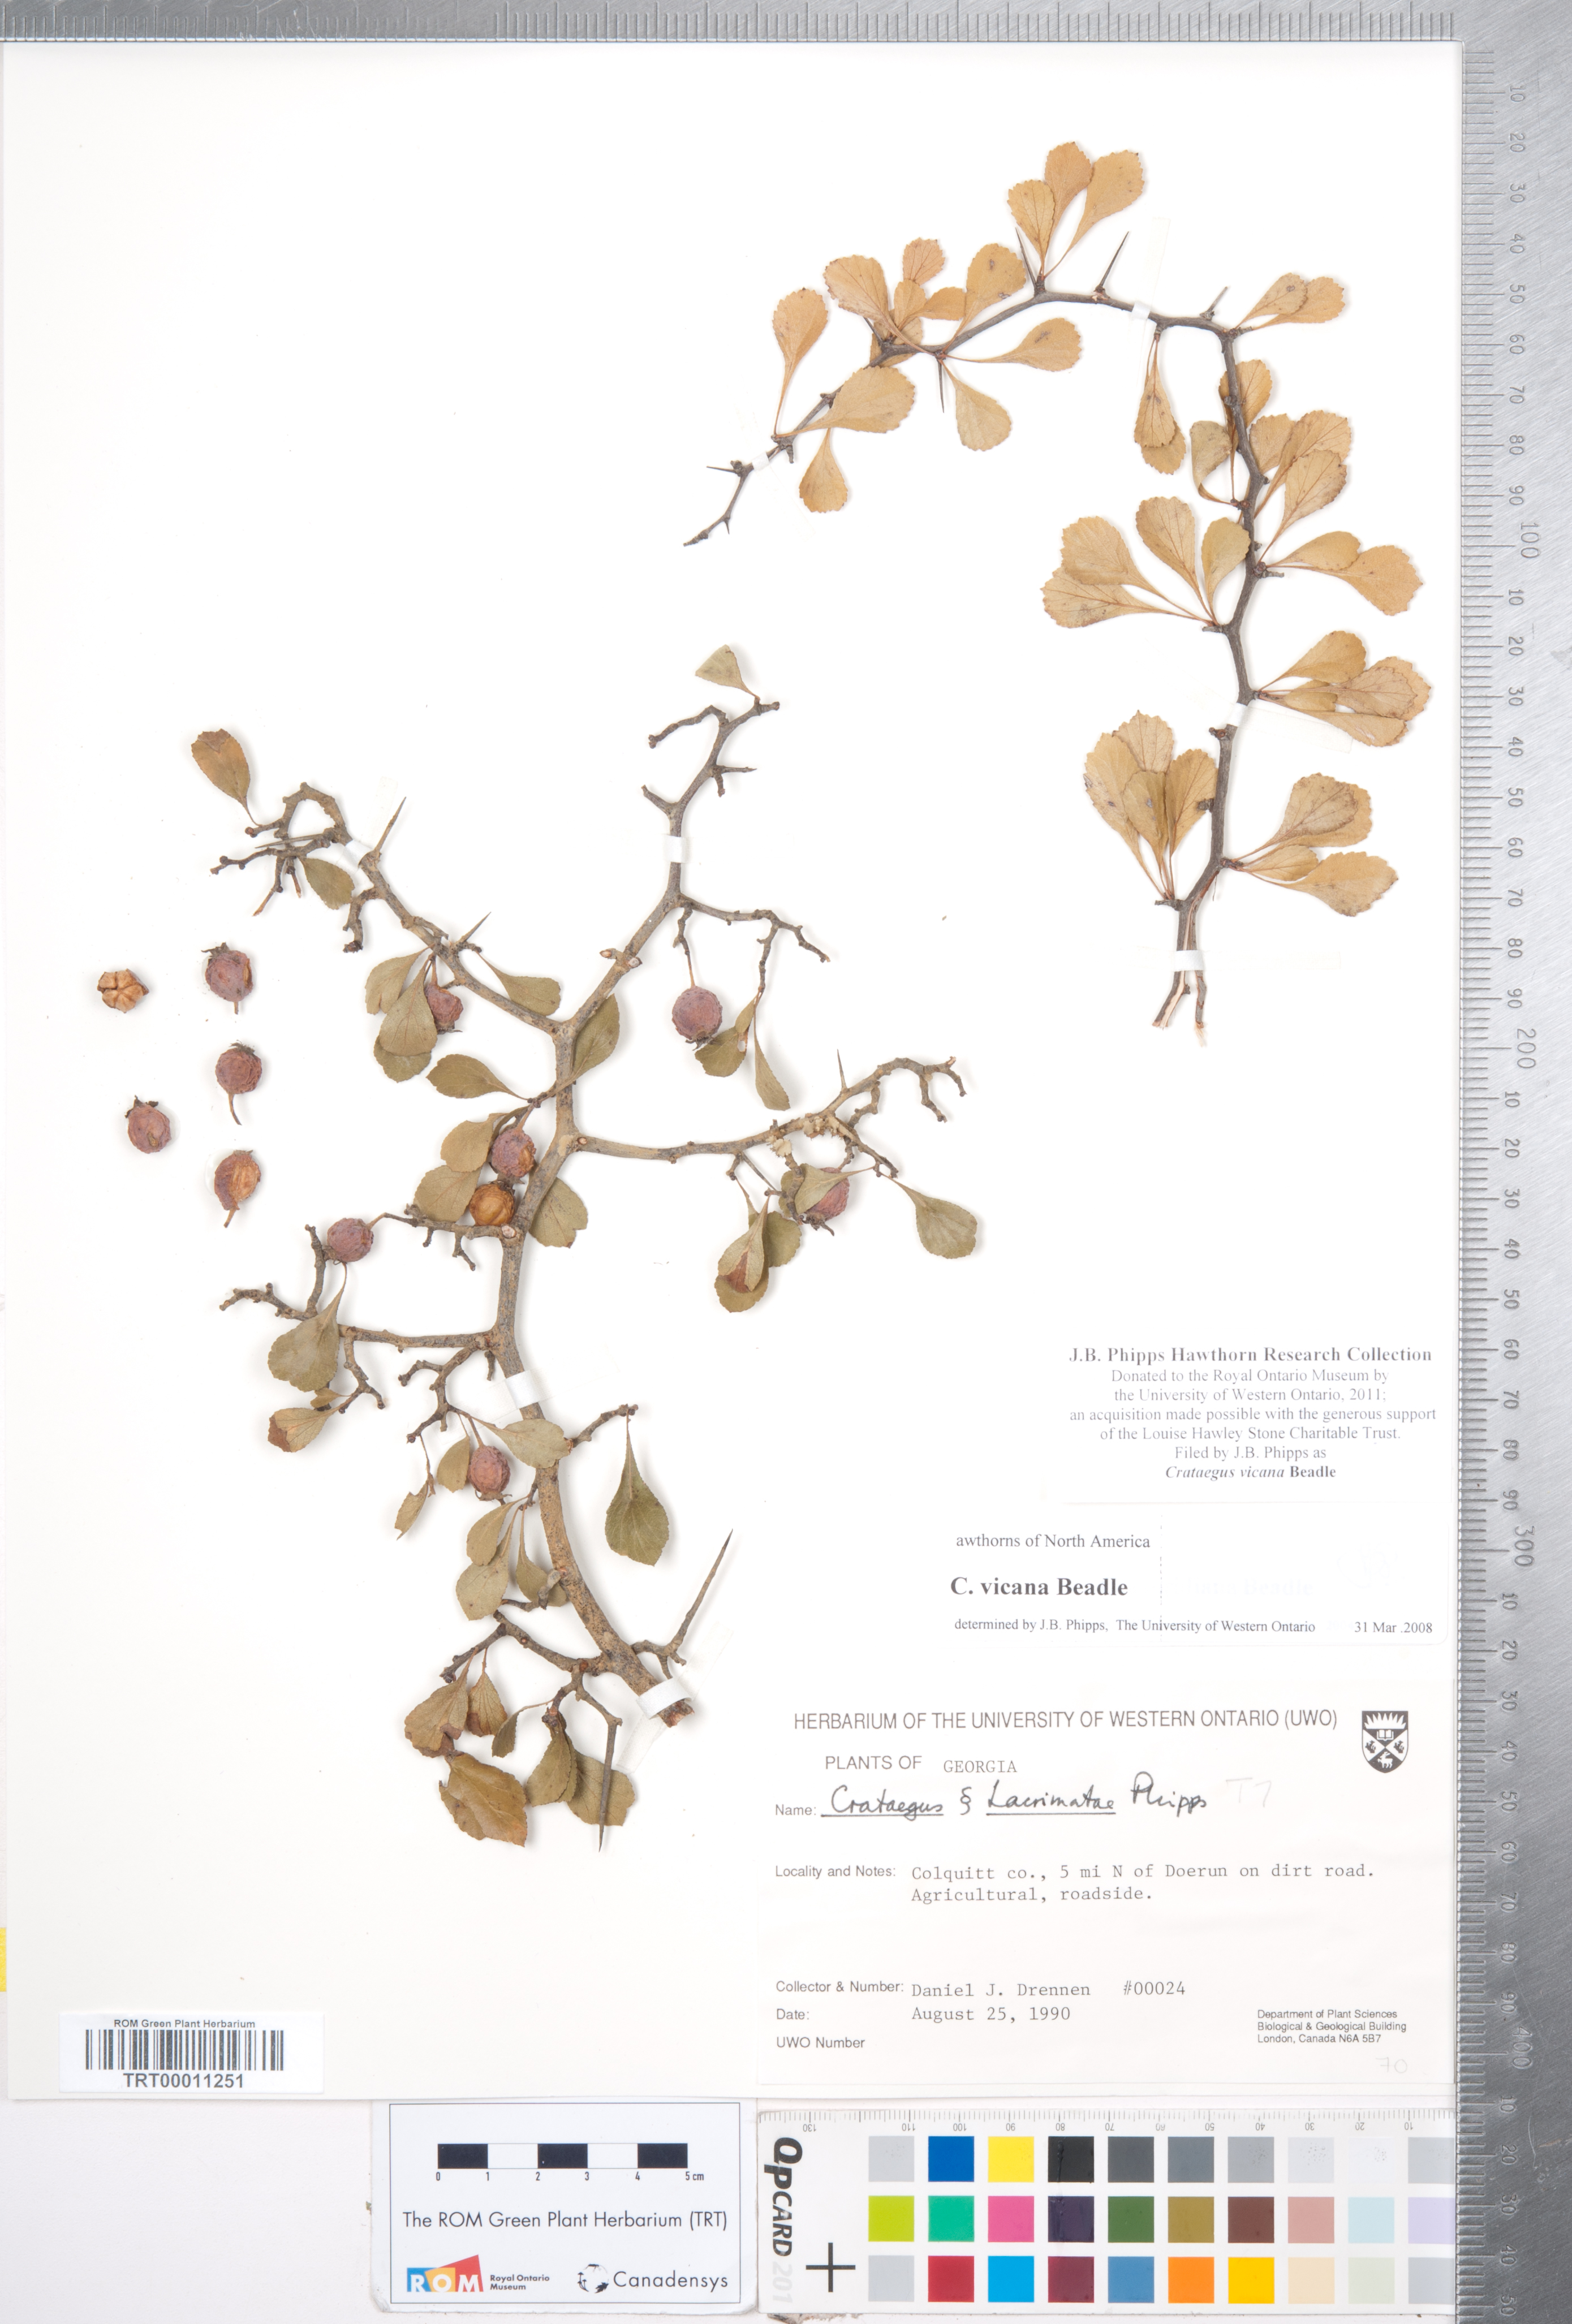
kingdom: Plantae
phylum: Tracheophyta
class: Magnoliopsida
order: Rosales
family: Rosaceae
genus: Crataegus
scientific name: Crataegus lassa
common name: Florida hawthorn
